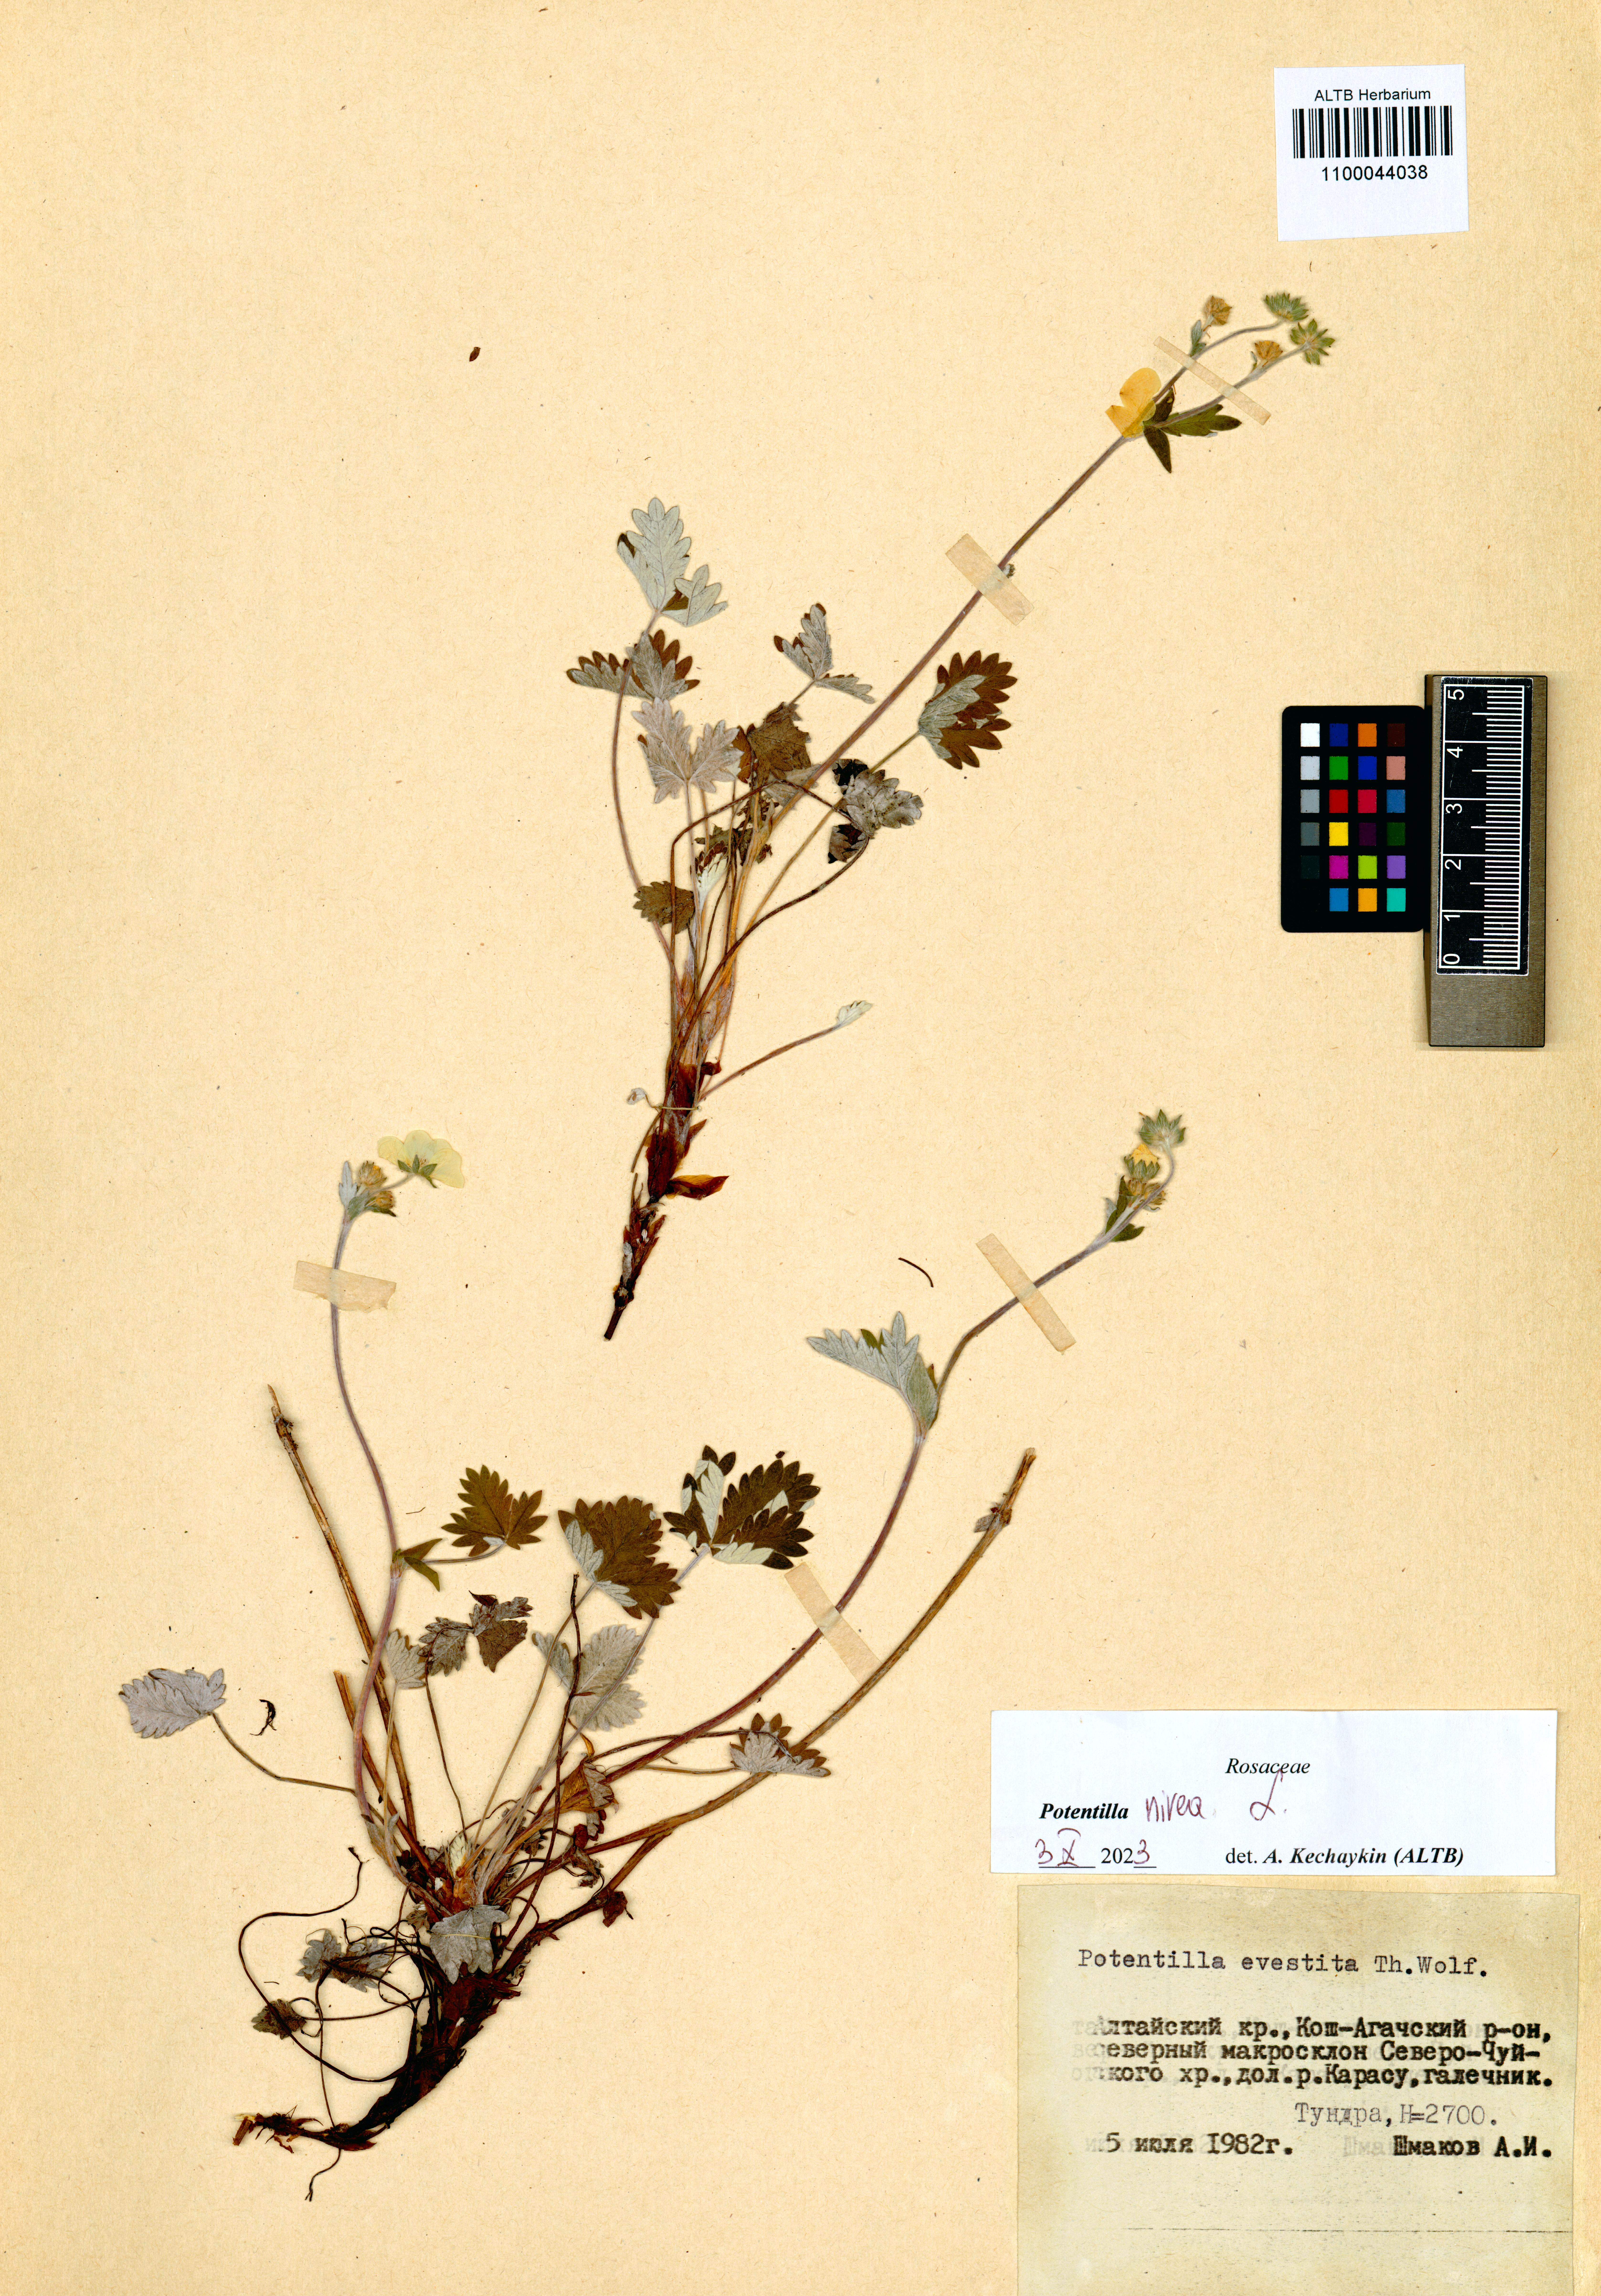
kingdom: Plantae
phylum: Tracheophyta
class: Magnoliopsida
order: Rosales
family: Rosaceae
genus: Potentilla
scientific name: Potentilla nivea
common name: Snow cinquefoil
